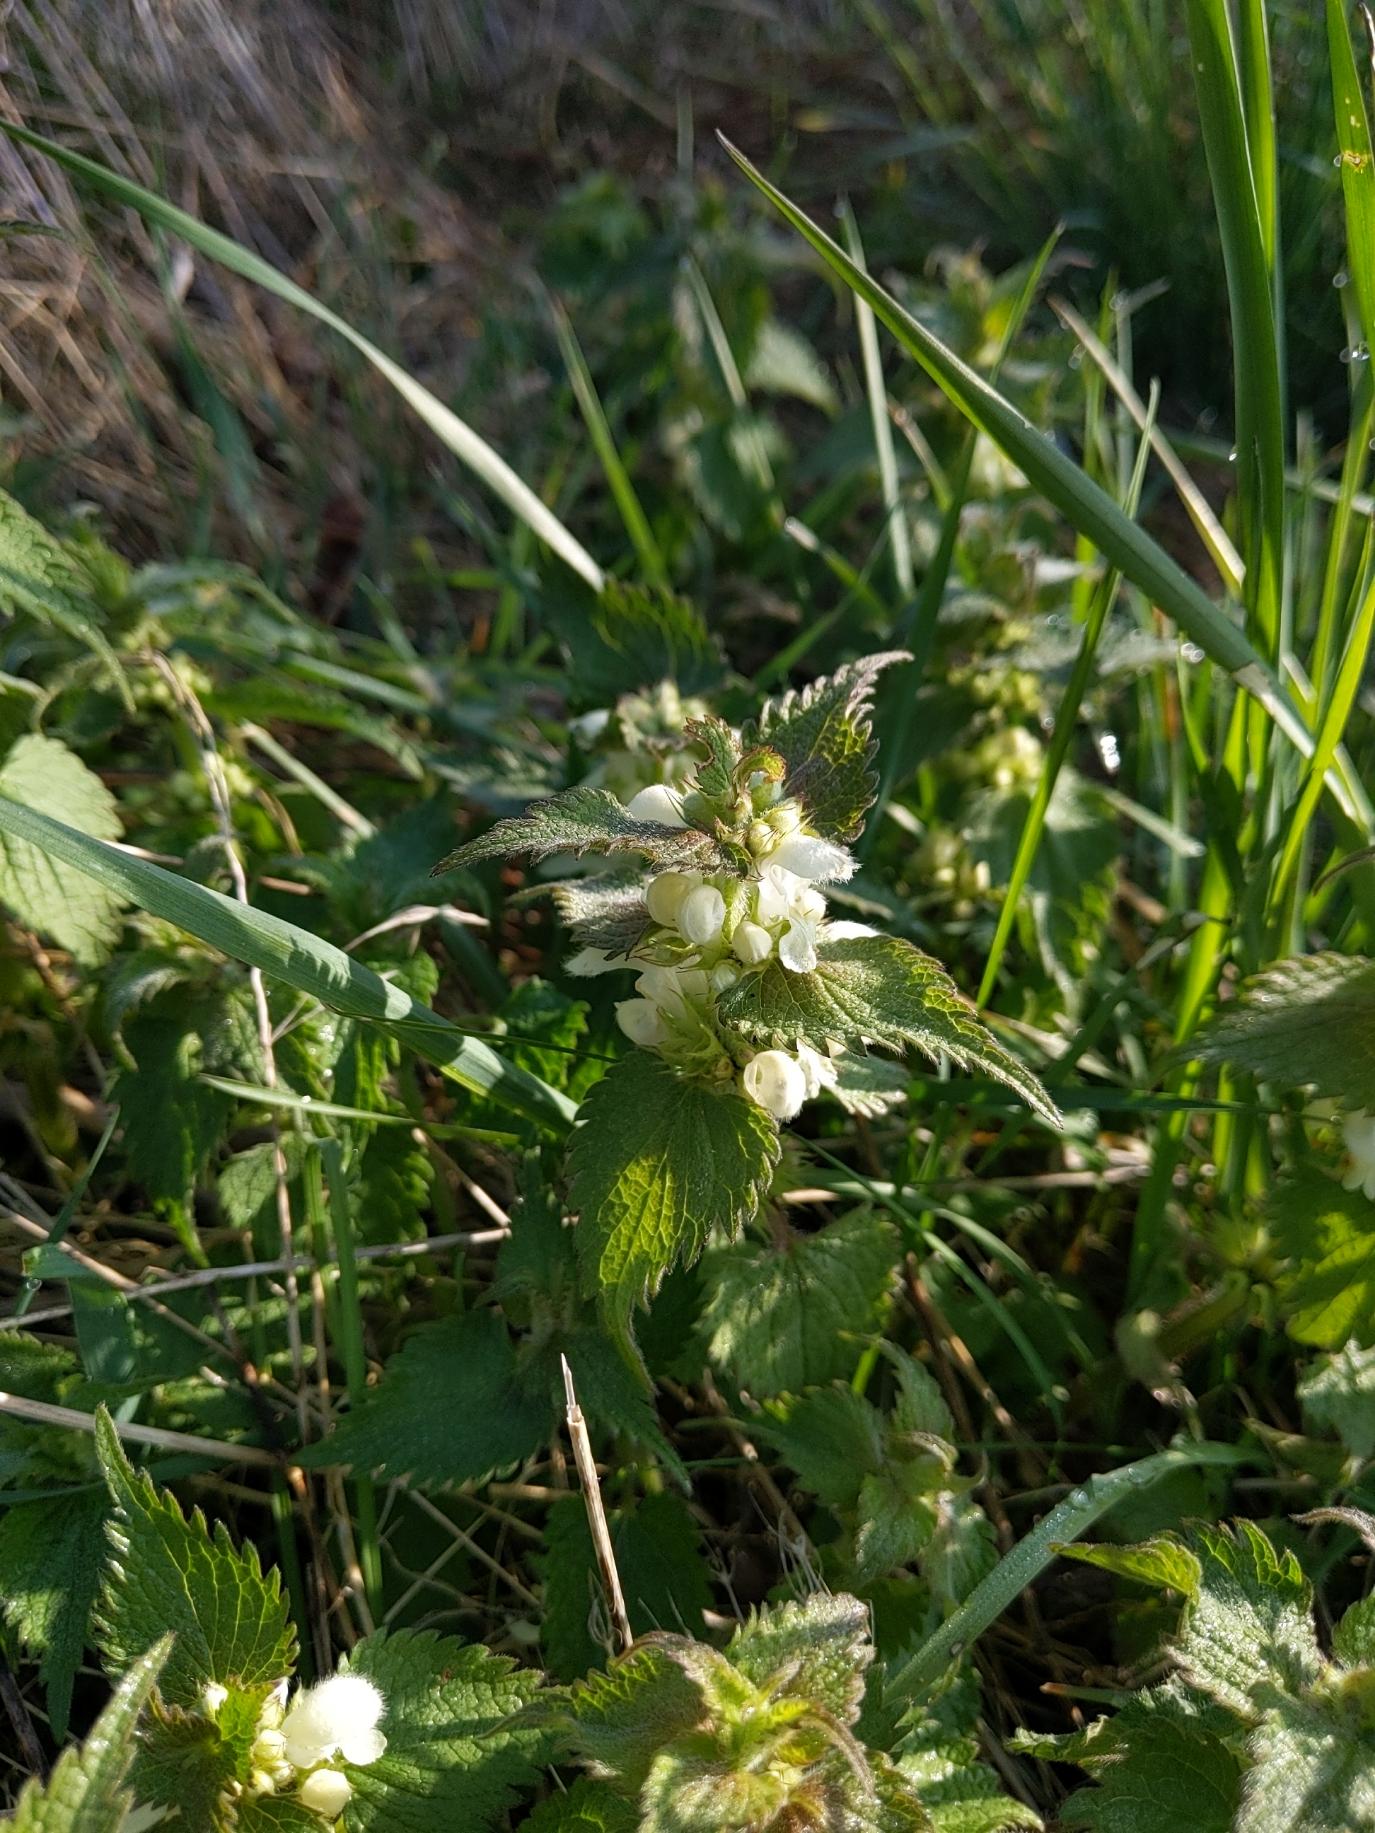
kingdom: Plantae
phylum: Tracheophyta
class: Magnoliopsida
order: Lamiales
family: Lamiaceae
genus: Lamium
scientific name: Lamium album
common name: Døvnælde
